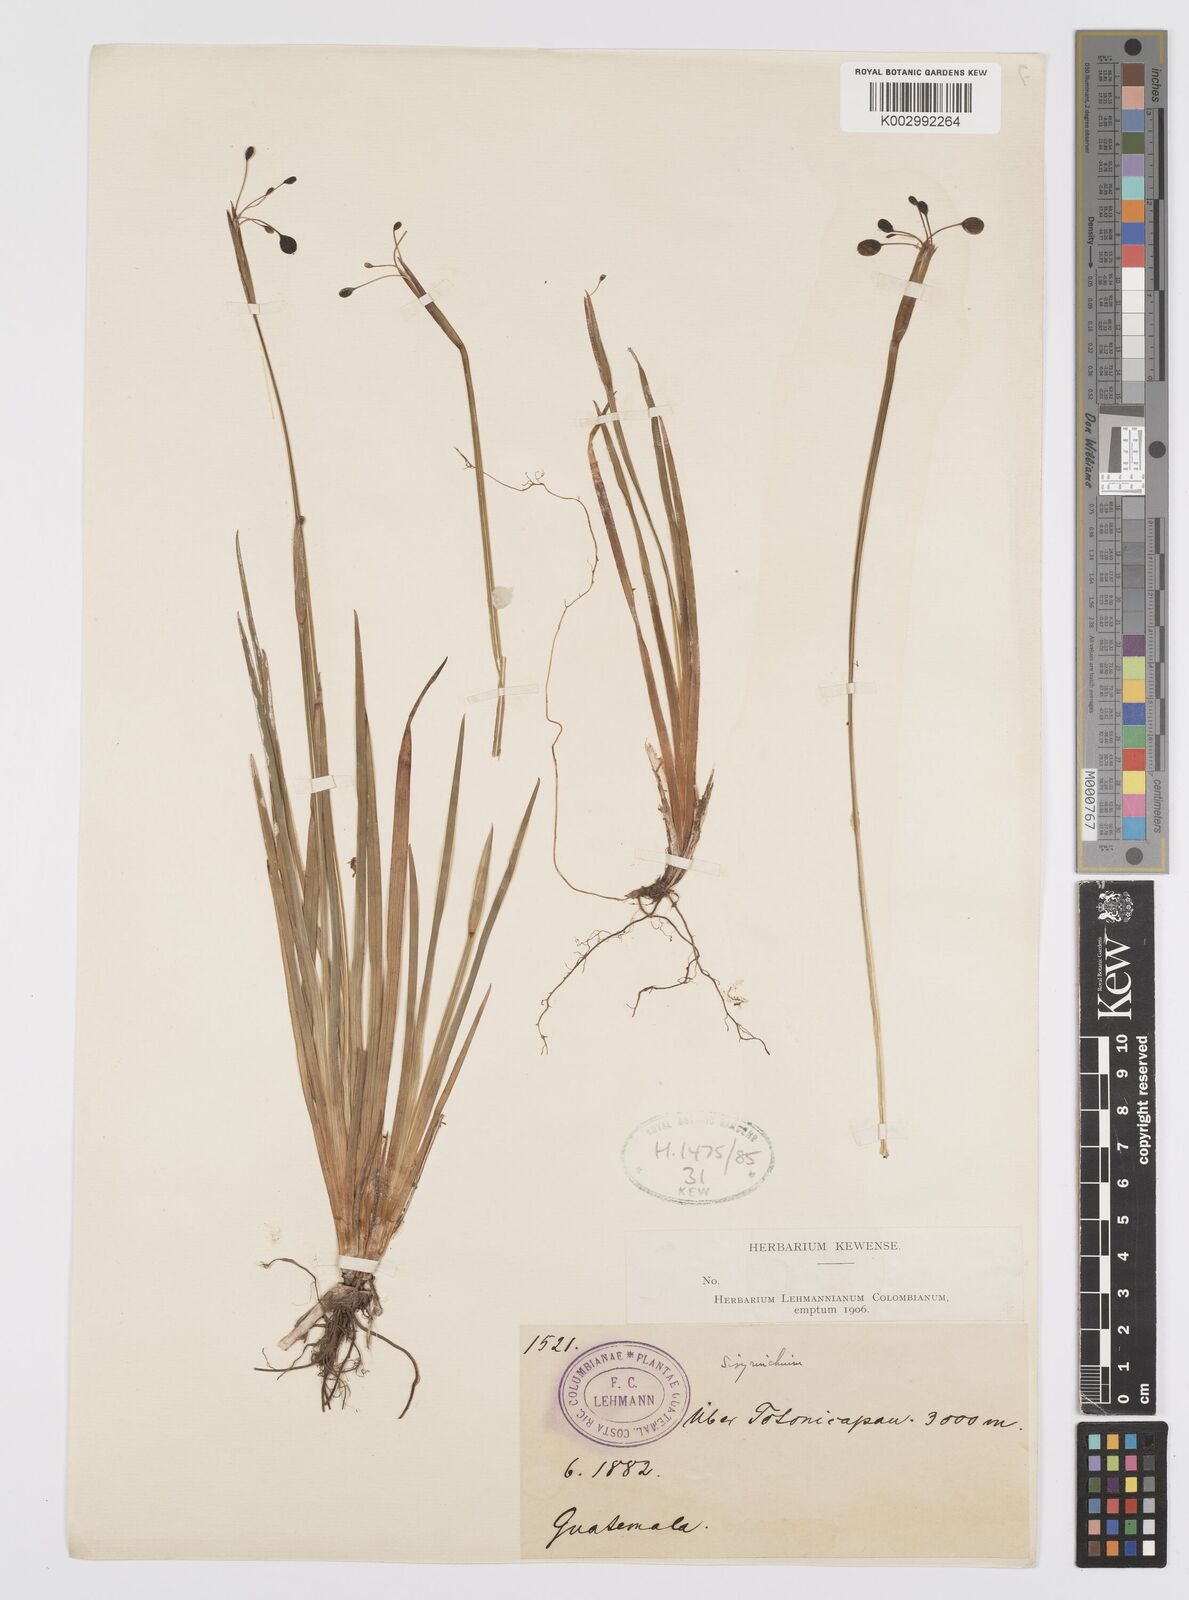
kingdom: Plantae
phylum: Tracheophyta
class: Liliopsida
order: Asparagales
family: Iridaceae
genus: Sisyrinchium
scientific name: Sisyrinchium
